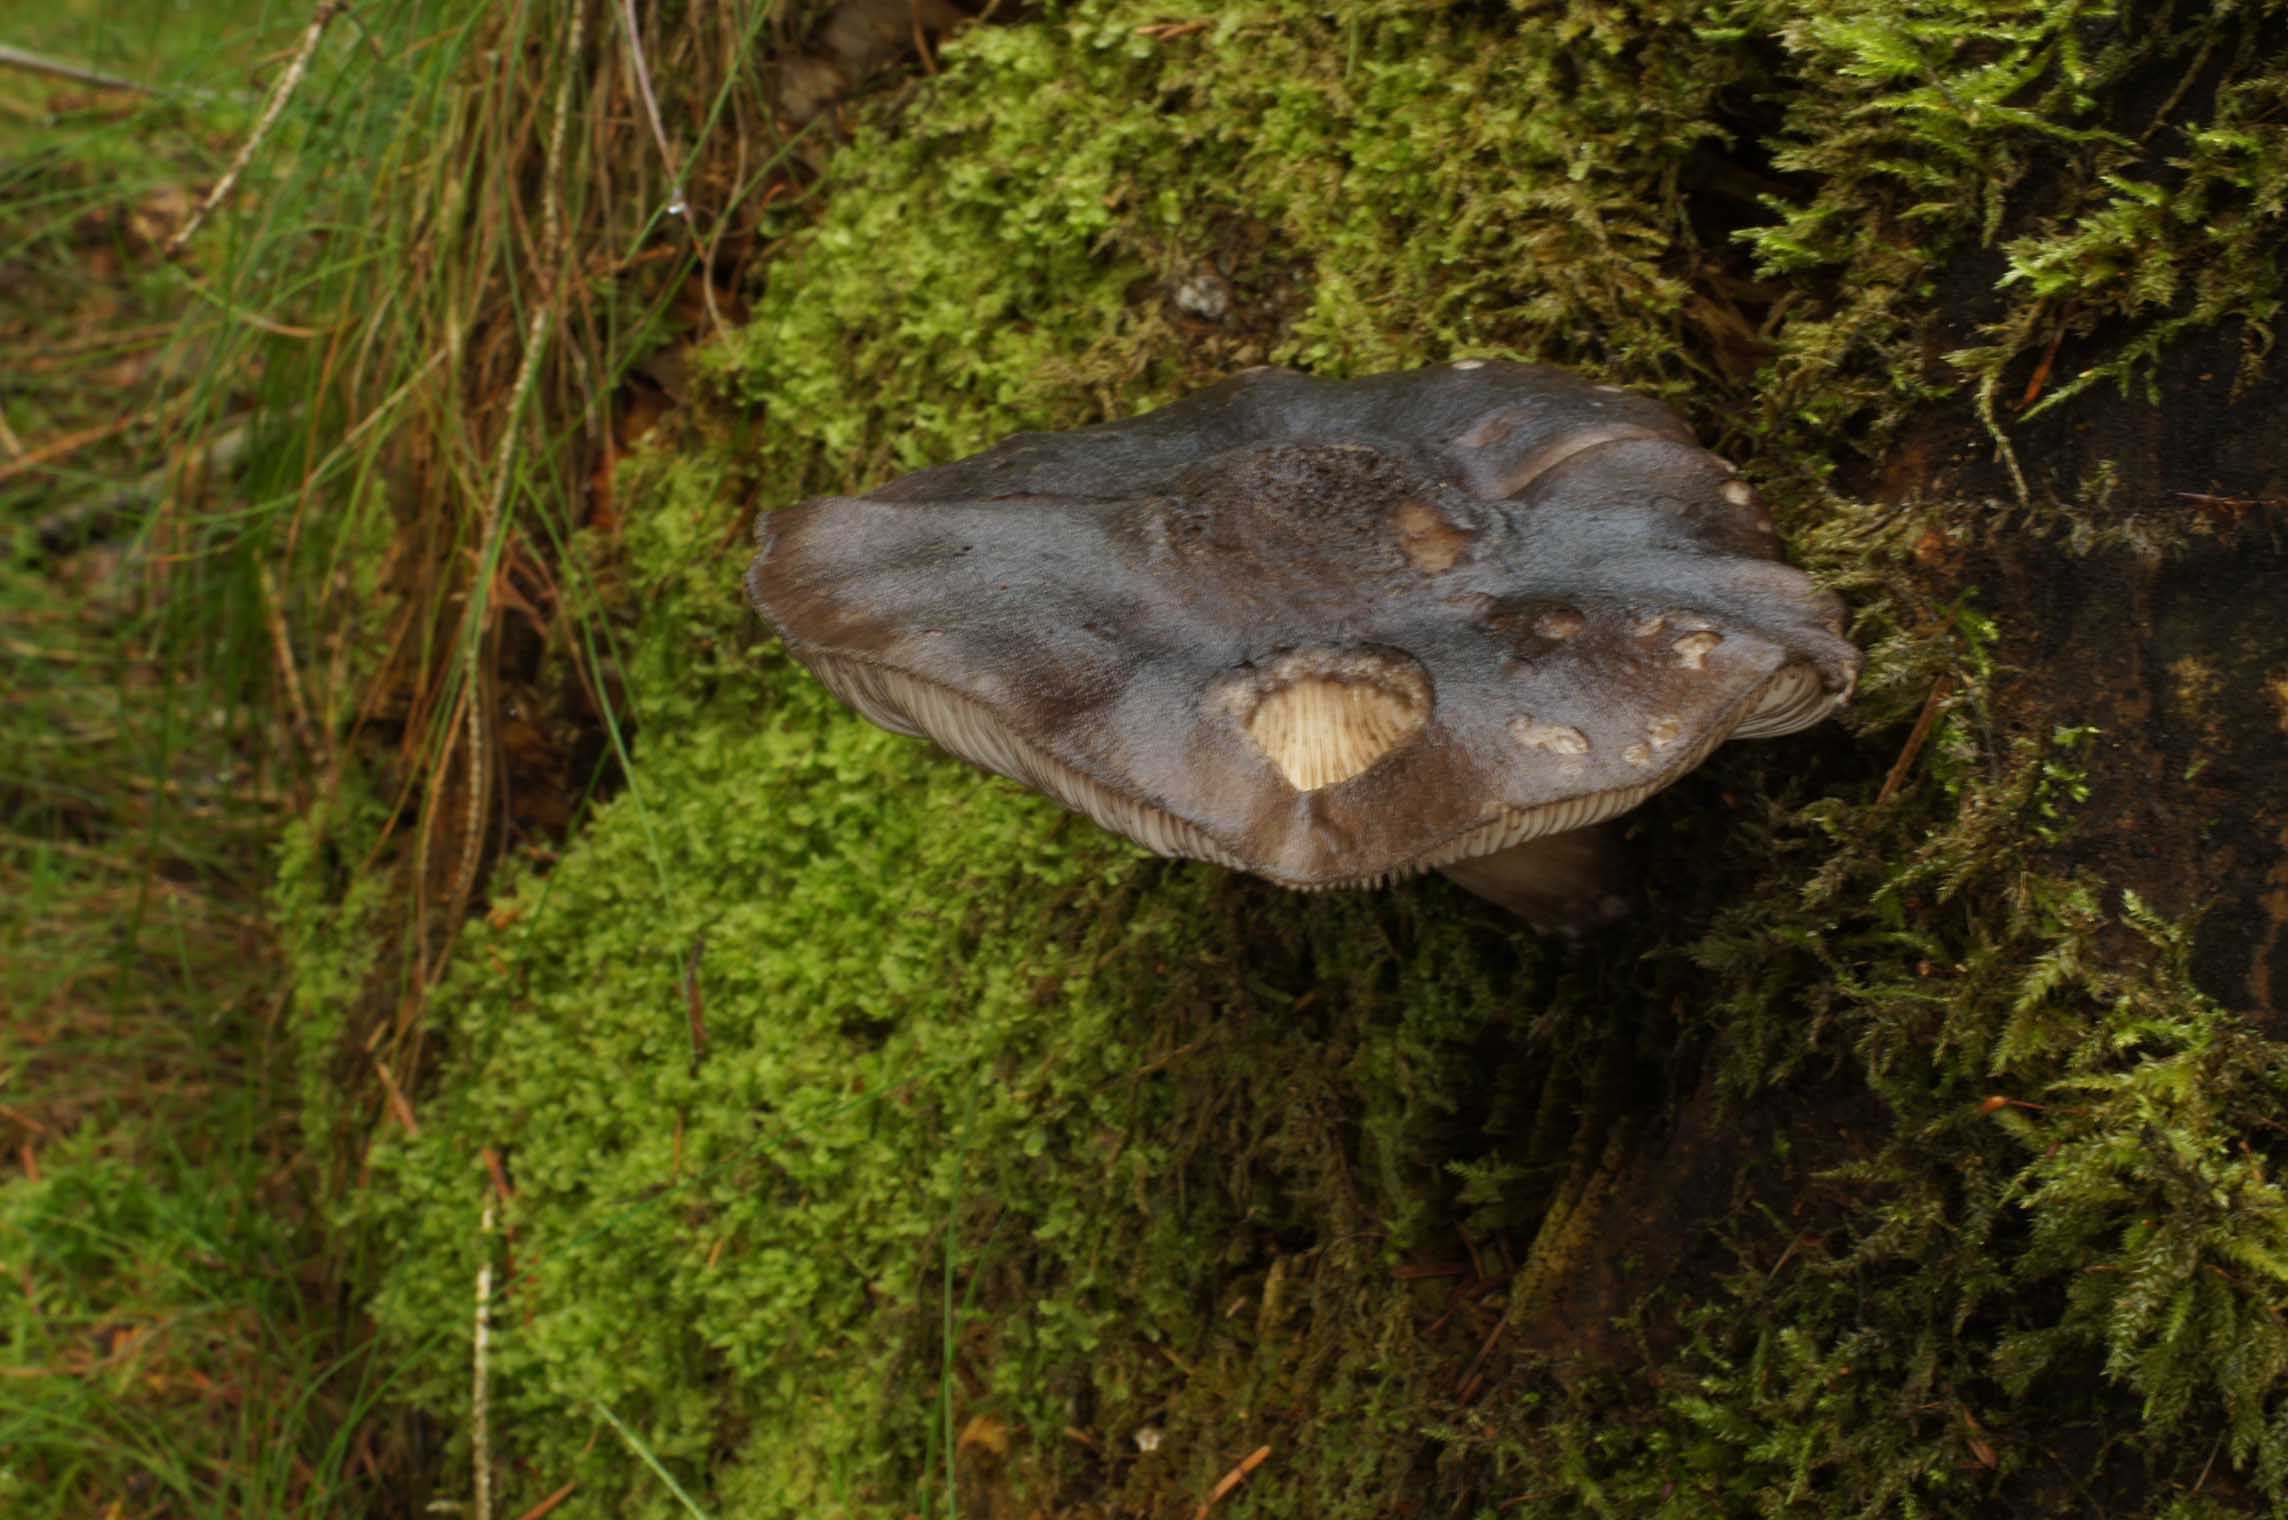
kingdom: Fungi
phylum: Basidiomycota
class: Agaricomycetes
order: Agaricales
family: Pluteaceae
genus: Pluteus
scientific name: Pluteus atromarginatus
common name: sortrandet skærmhat
